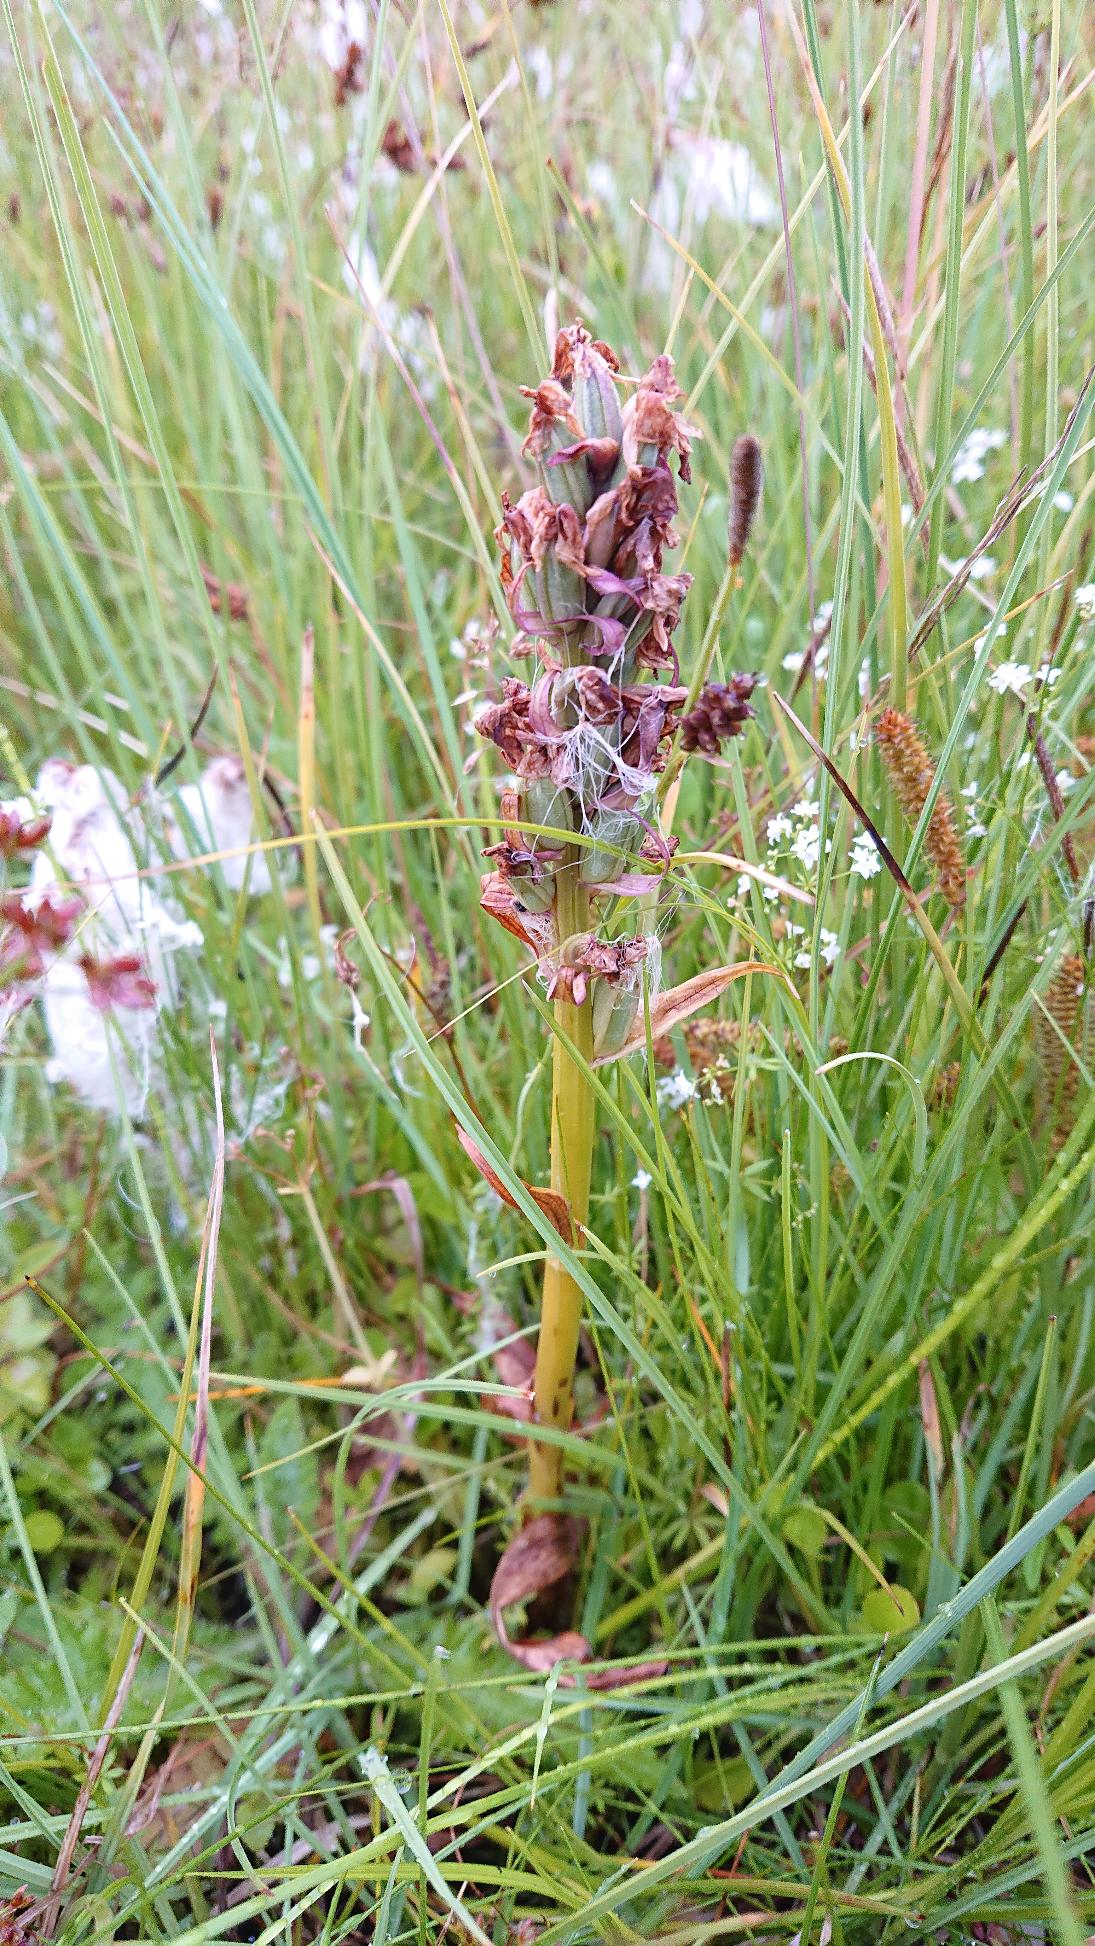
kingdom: Plantae
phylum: Tracheophyta
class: Liliopsida
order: Asparagales
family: Orchidaceae
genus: Dactylorhiza
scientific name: Dactylorhiza majalis
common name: Maj-gøgeurt
